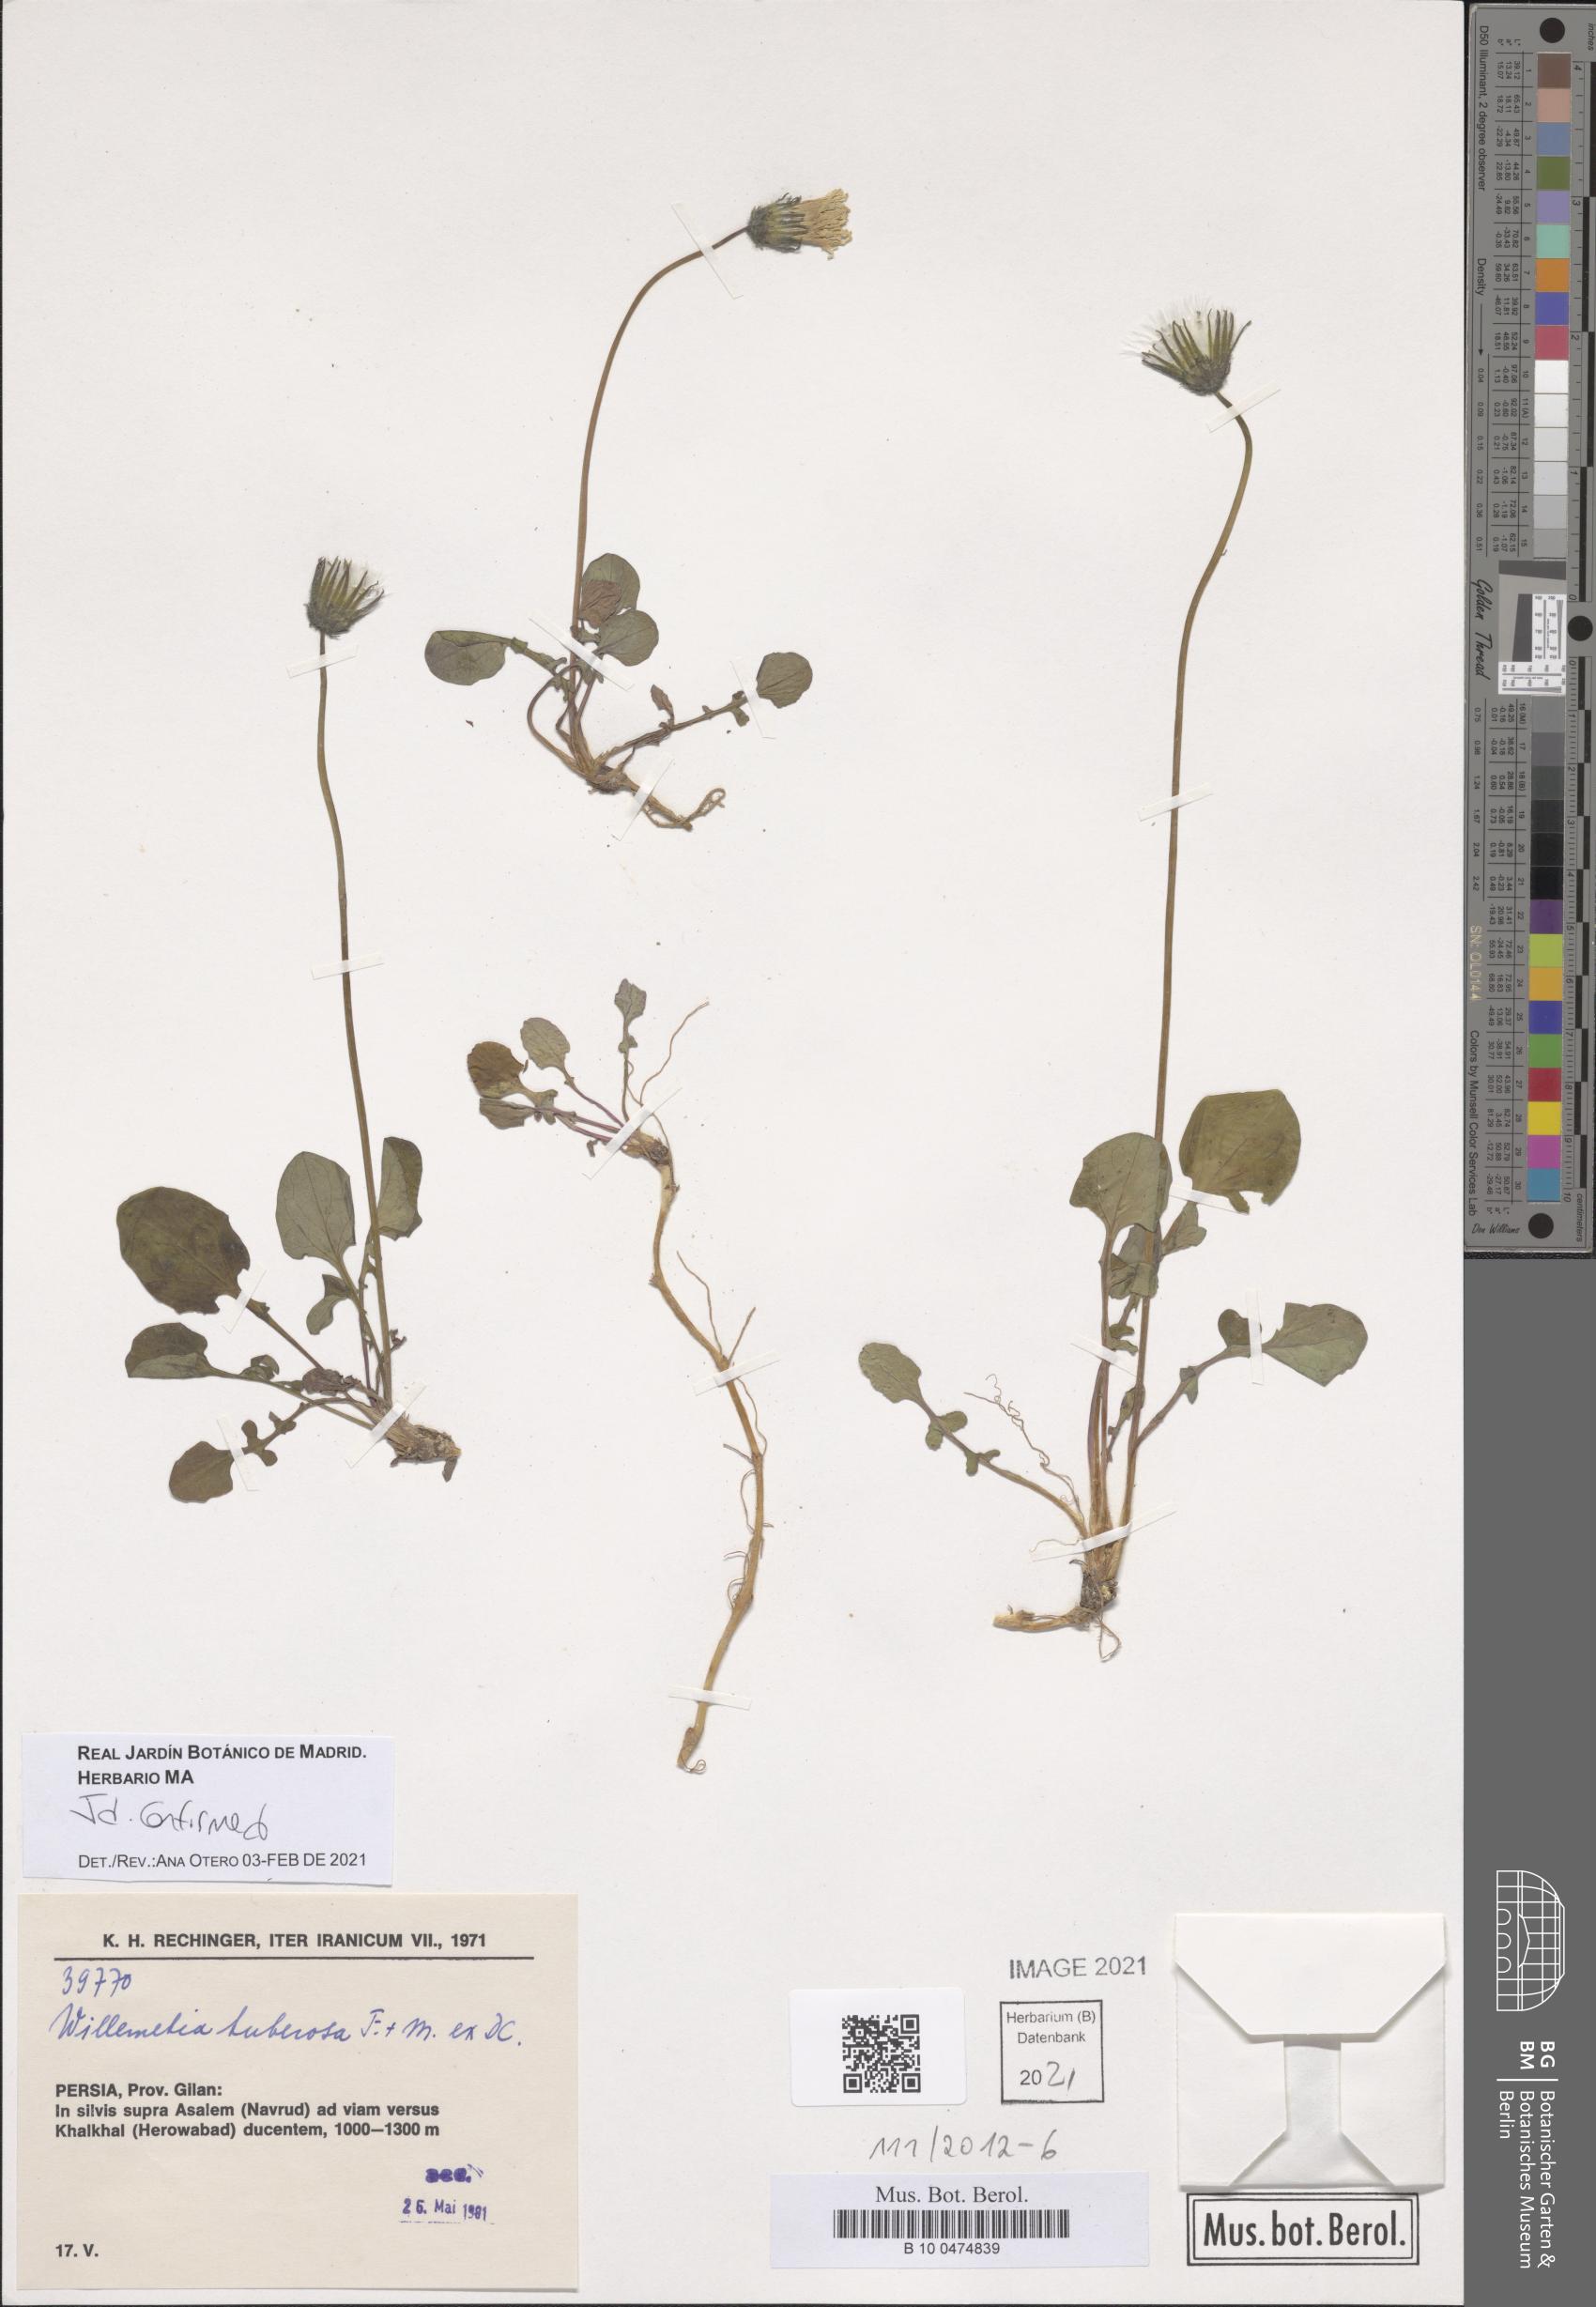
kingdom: Plantae
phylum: Tracheophyta
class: Magnoliopsida
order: Asterales
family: Asteraceae
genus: Willemetia
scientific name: Willemetia tuberosa
